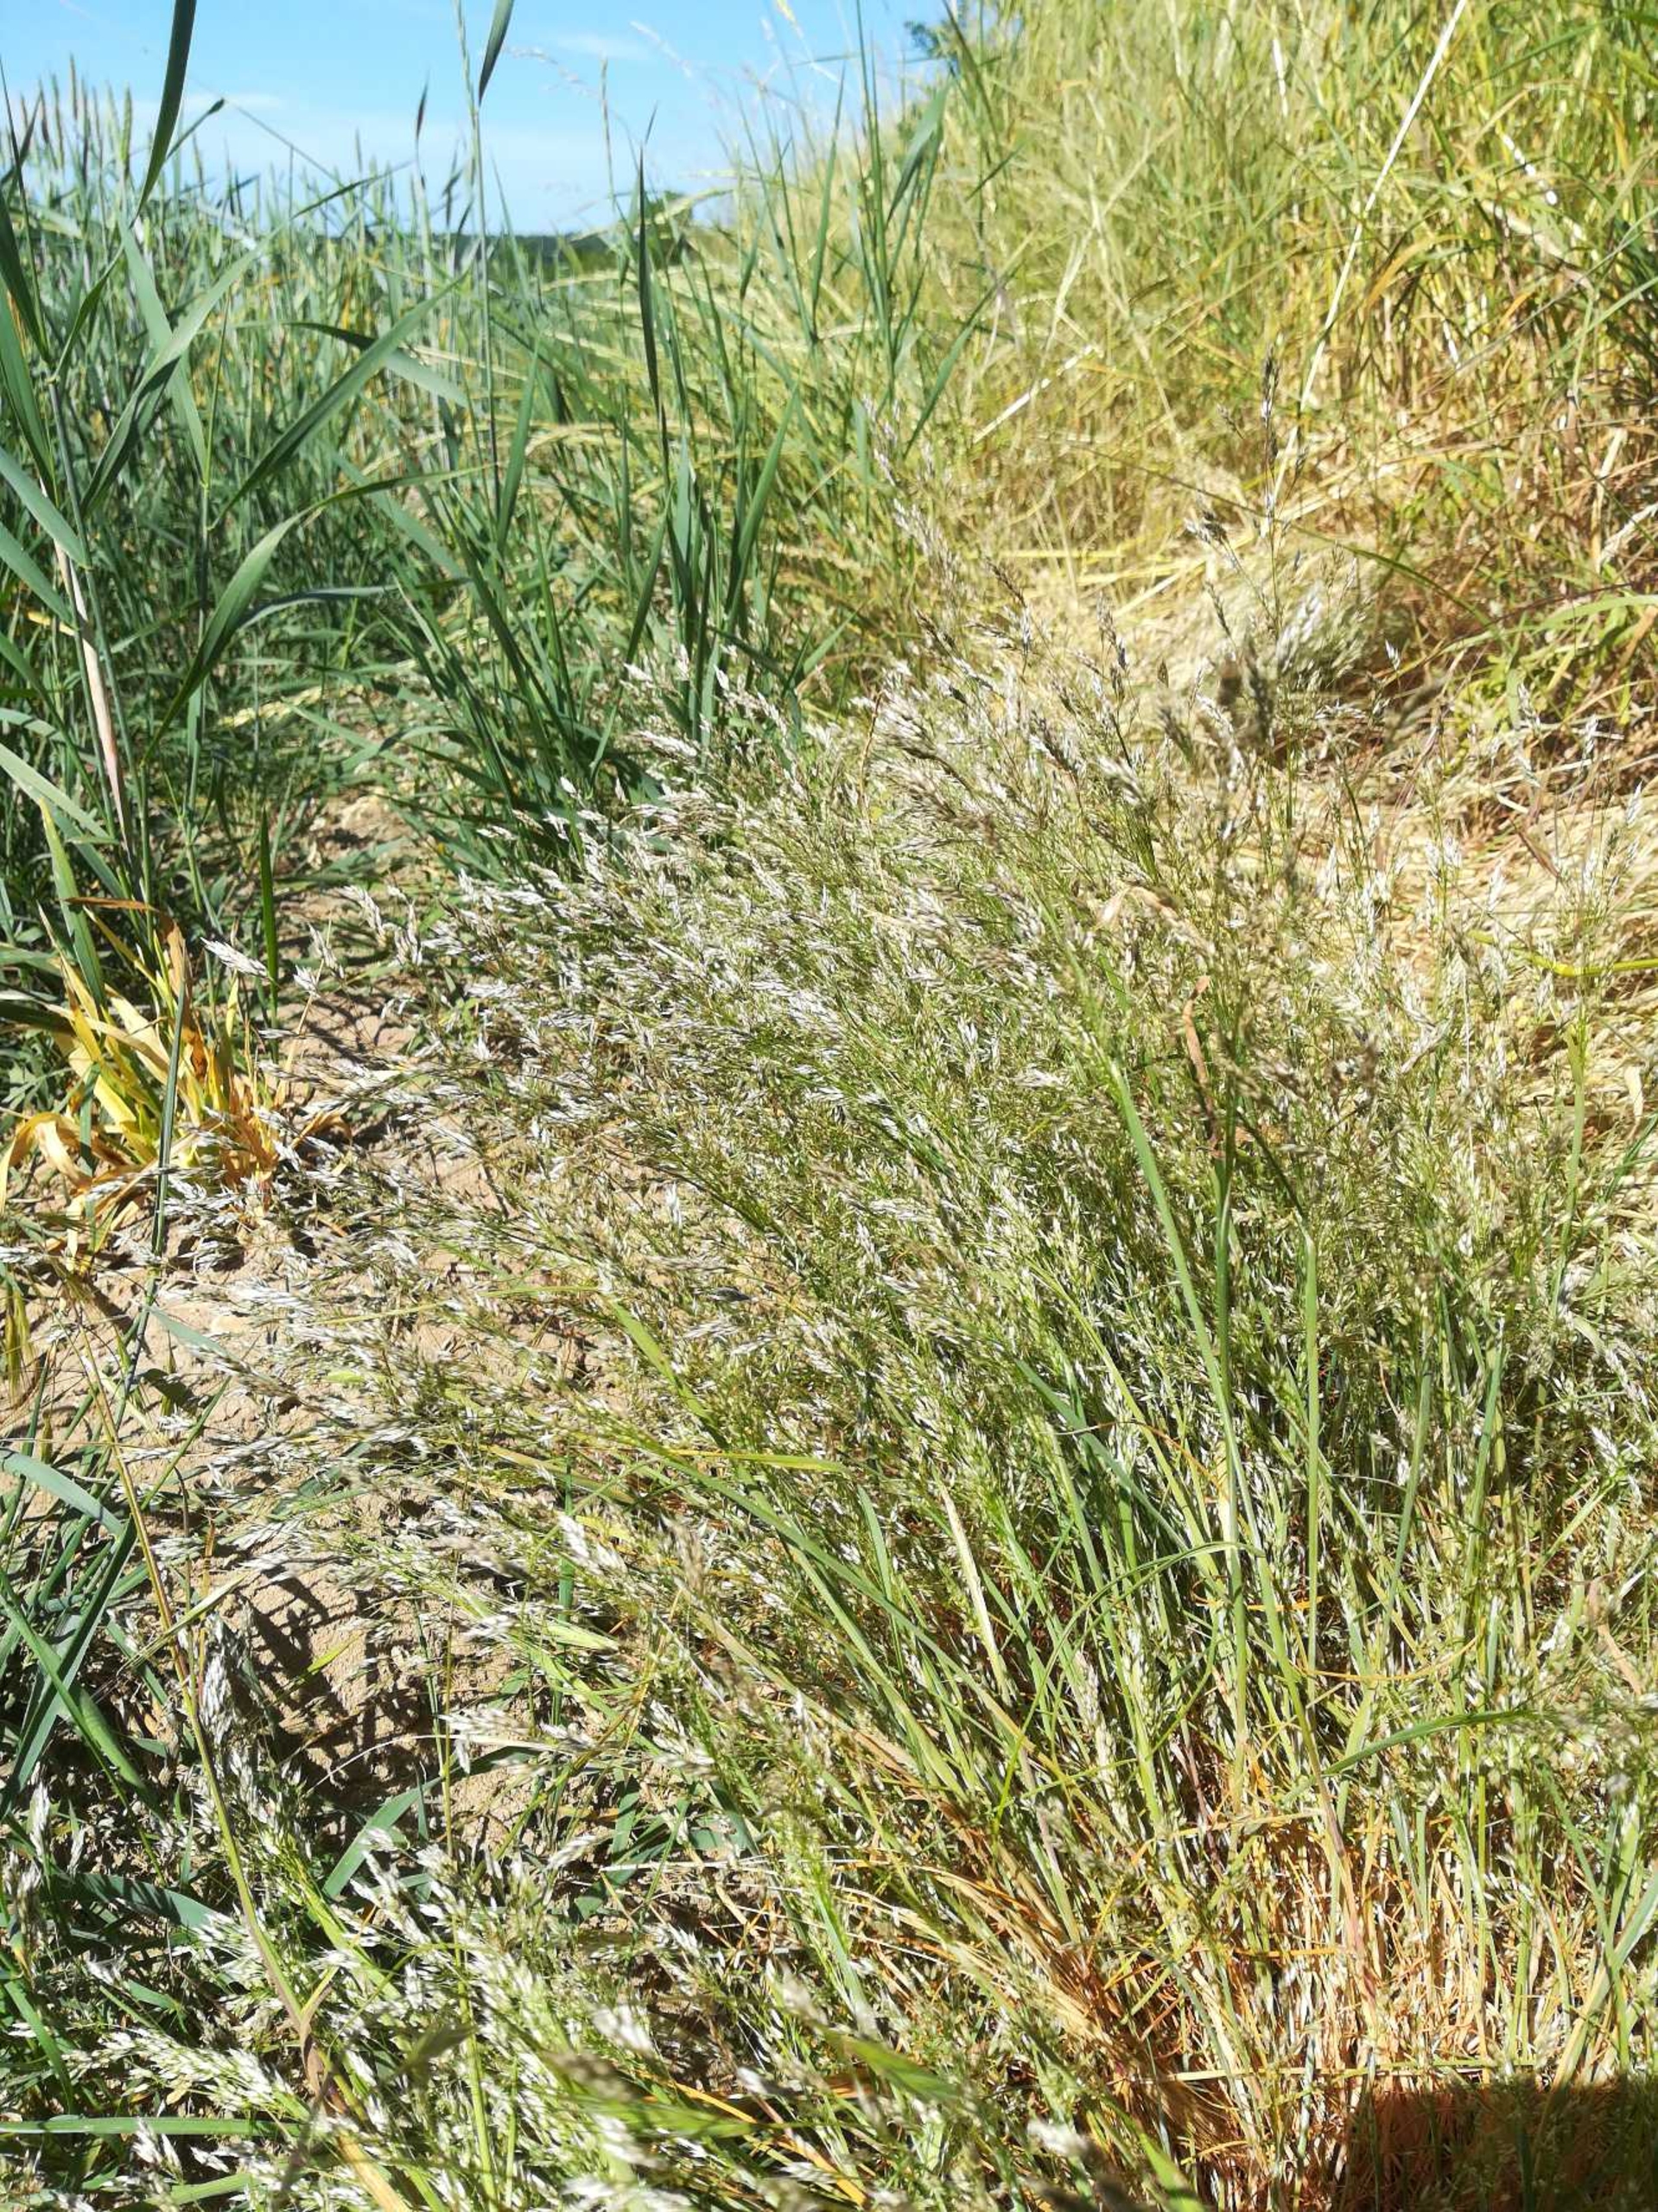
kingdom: Plantae
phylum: Tracheophyta
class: Liliopsida
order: Poales
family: Poaceae
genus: Aira
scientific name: Aira caryophyllea
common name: Udspærret dværgbunke
